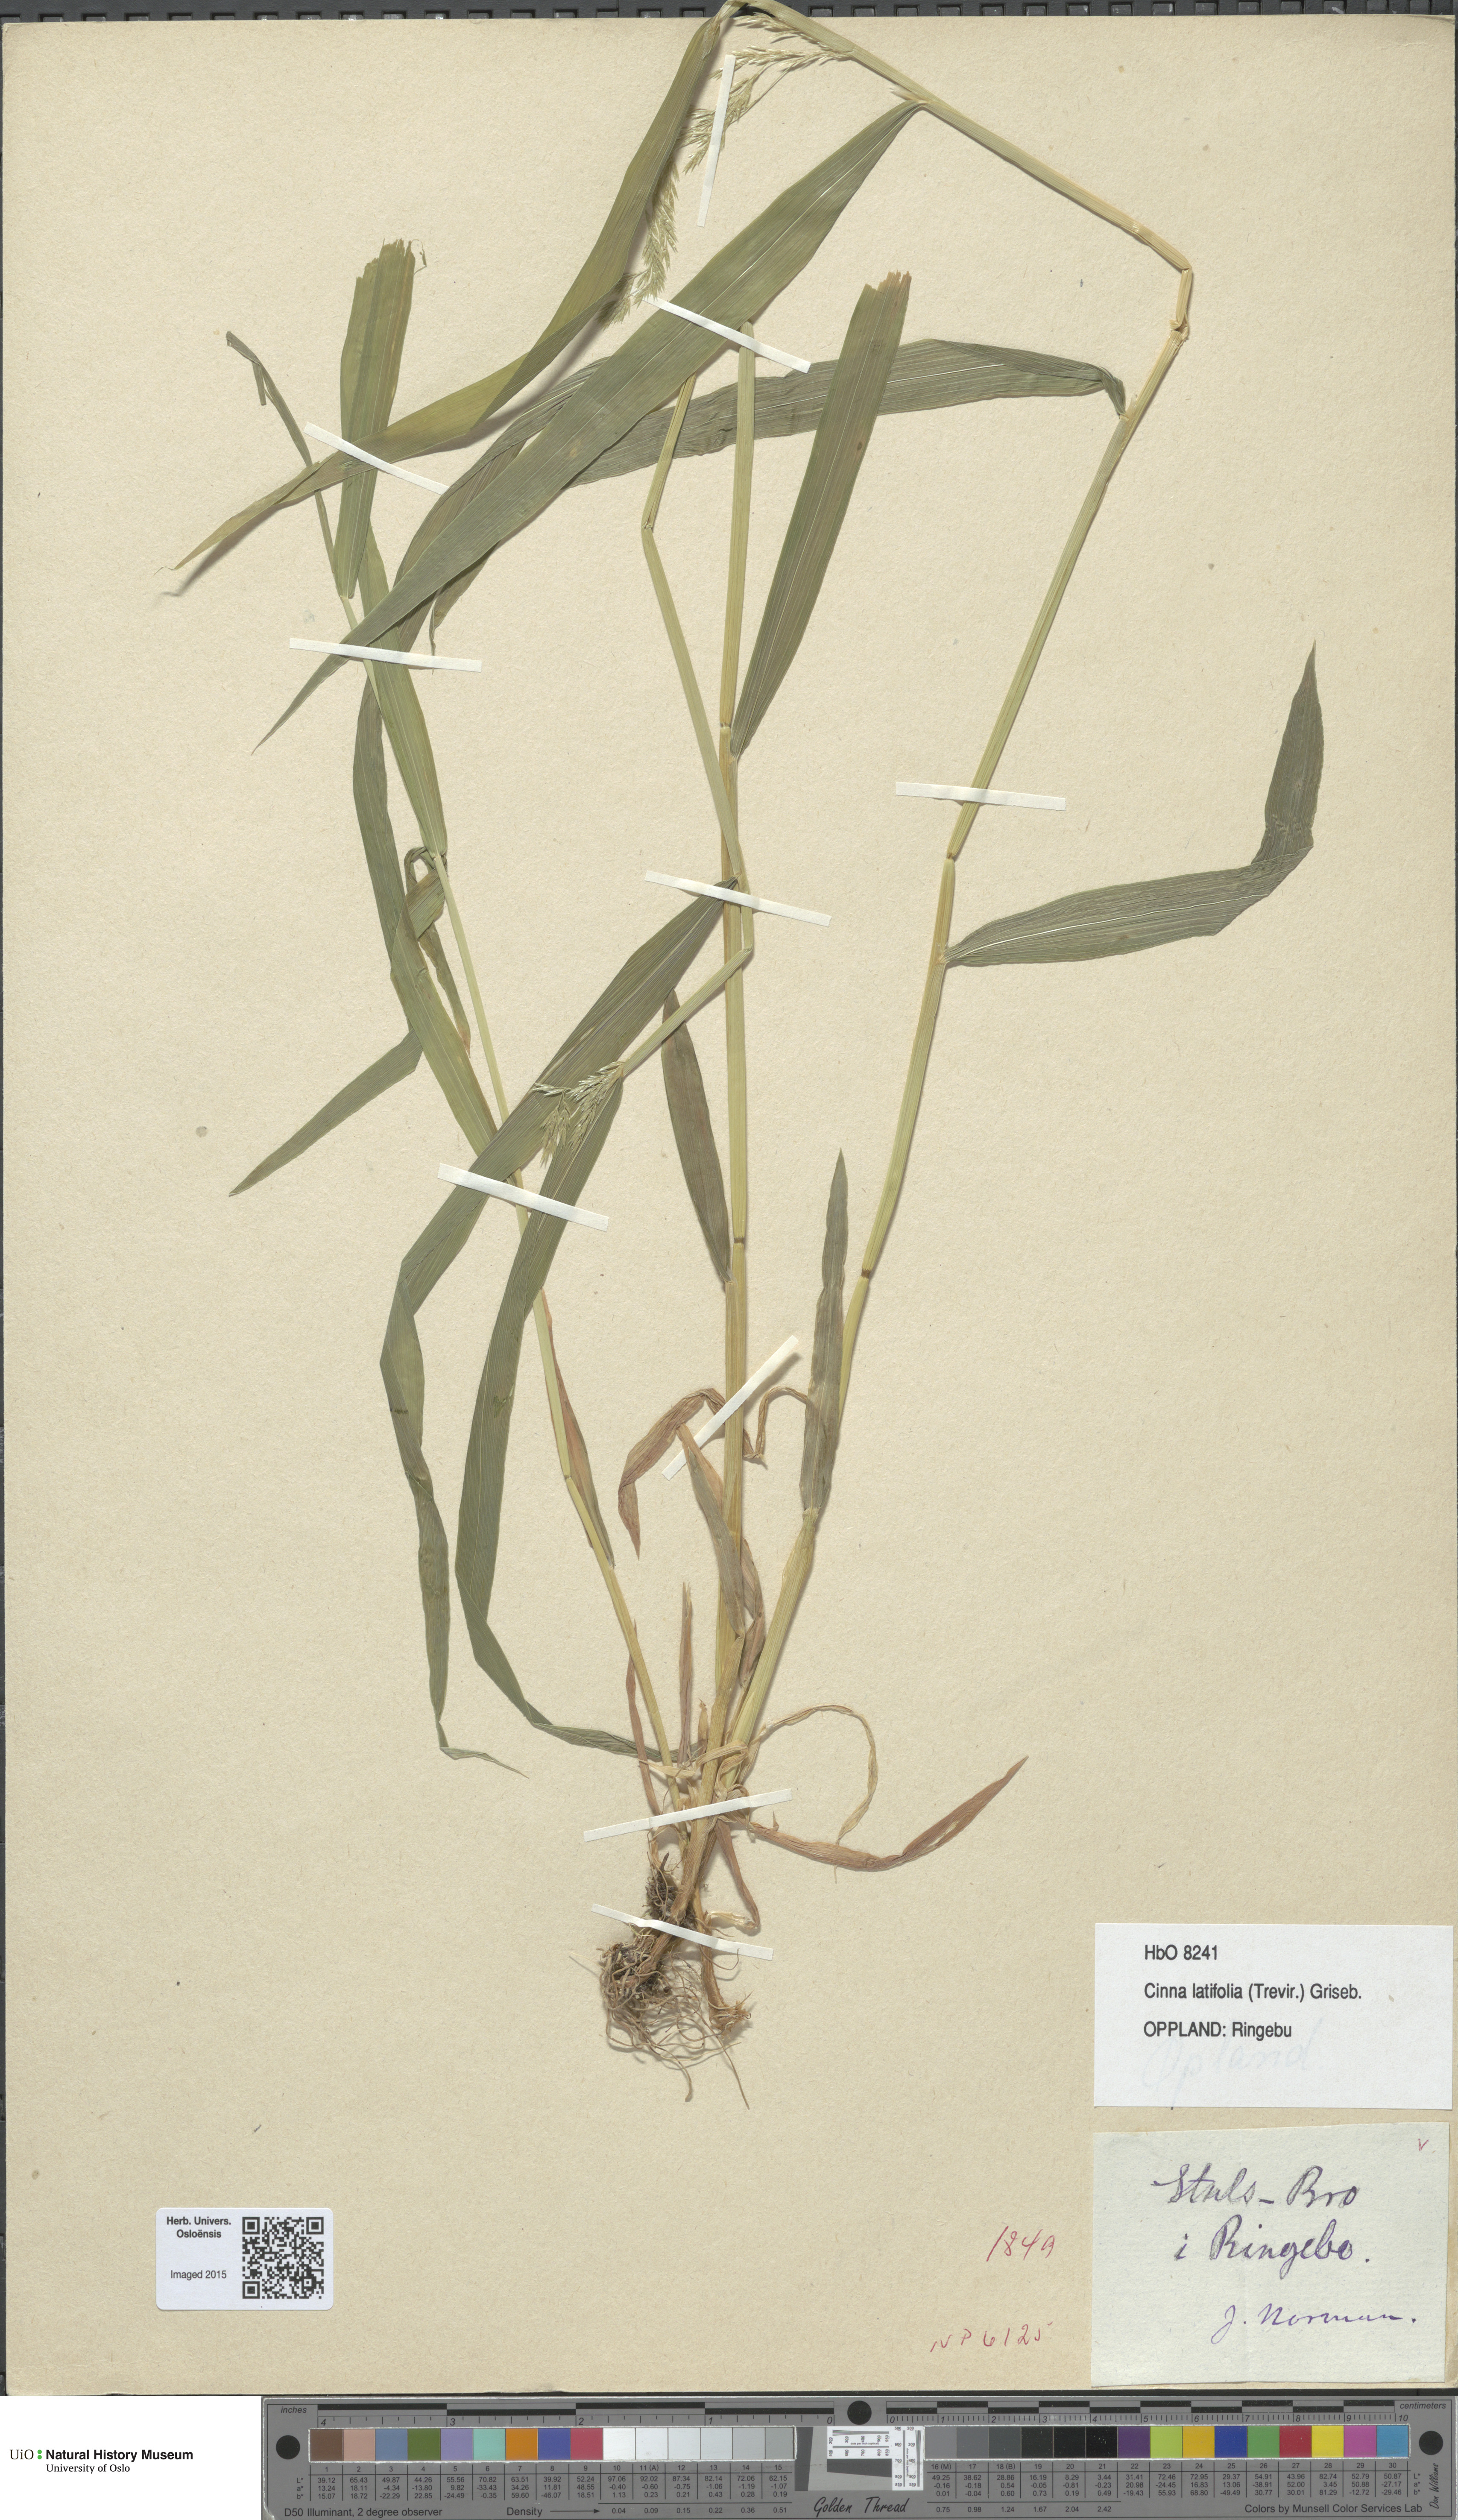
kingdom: Plantae
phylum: Tracheophyta
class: Liliopsida
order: Poales
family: Poaceae
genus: Cinna
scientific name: Cinna latifolia
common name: Drooping woodreed
